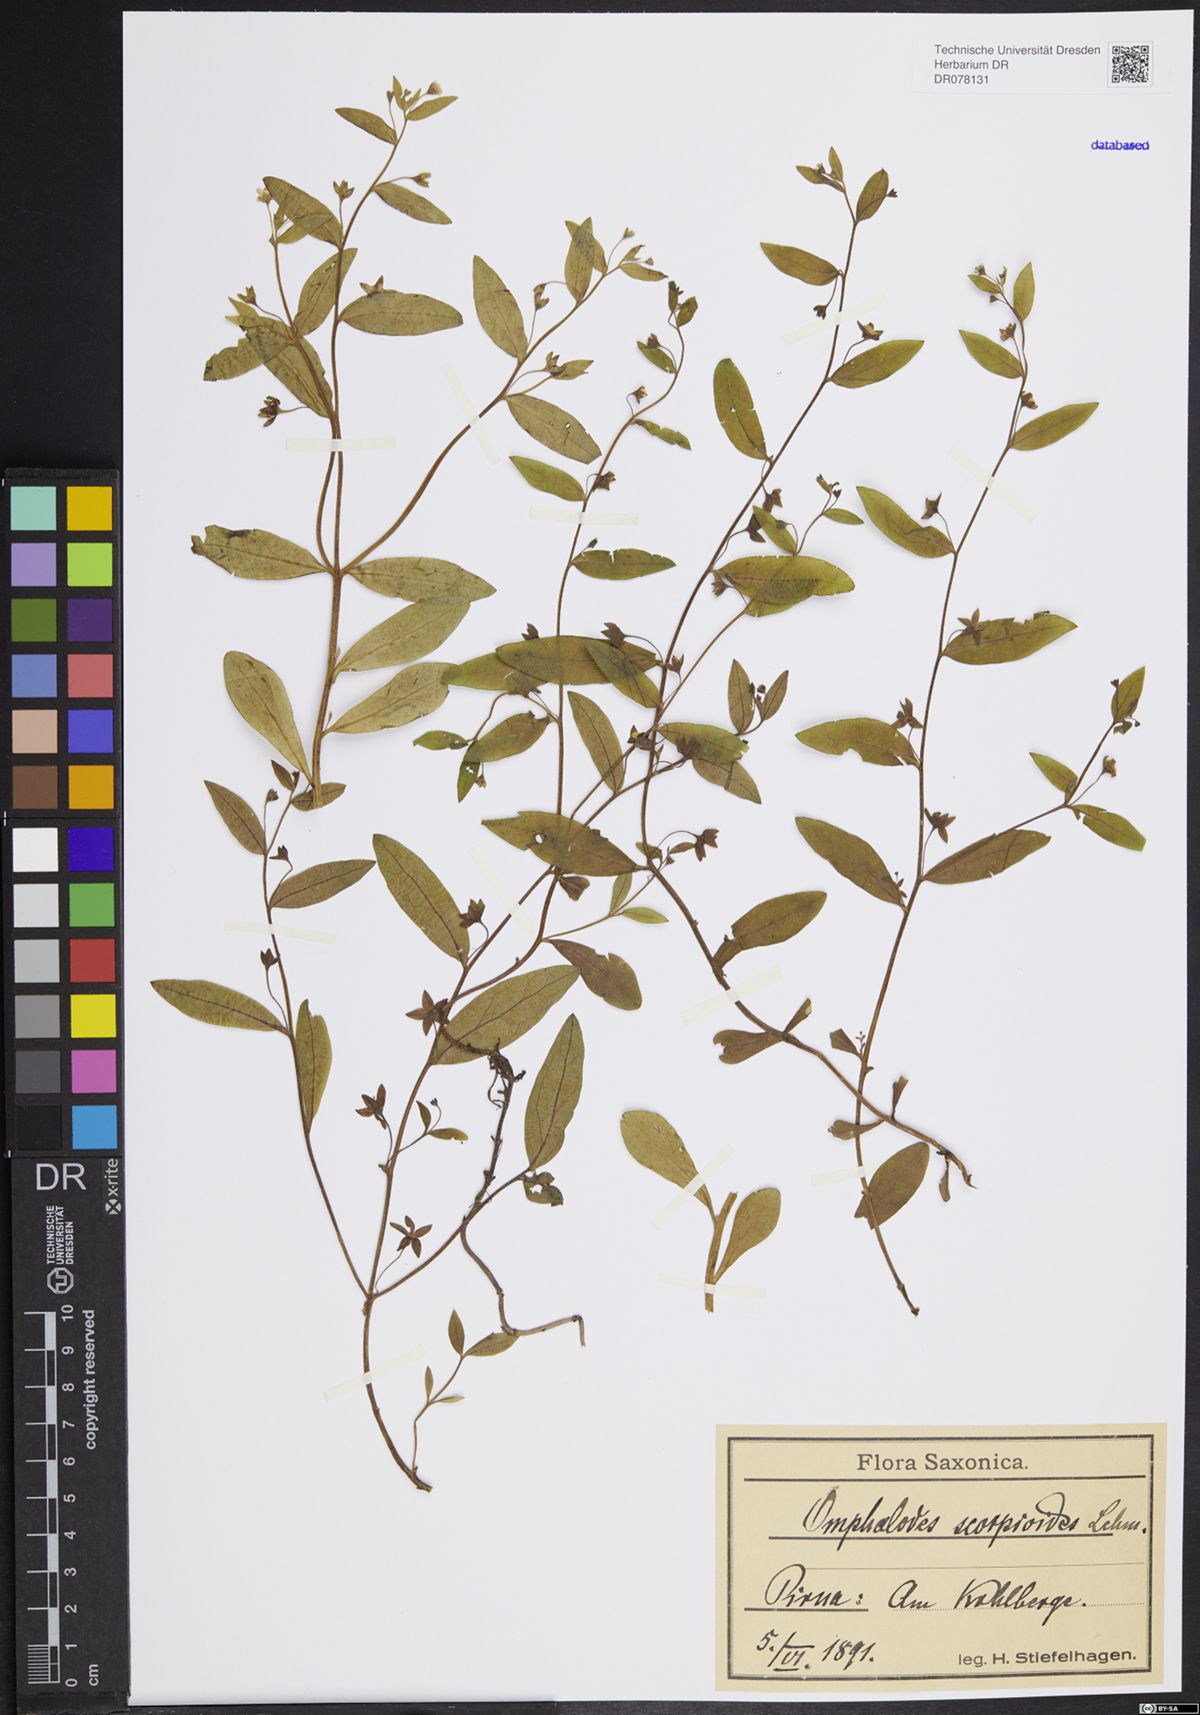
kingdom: Plantae
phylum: Tracheophyta
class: Magnoliopsida
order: Boraginales
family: Boraginaceae
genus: Memoremea
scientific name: Memoremea scorpioides
